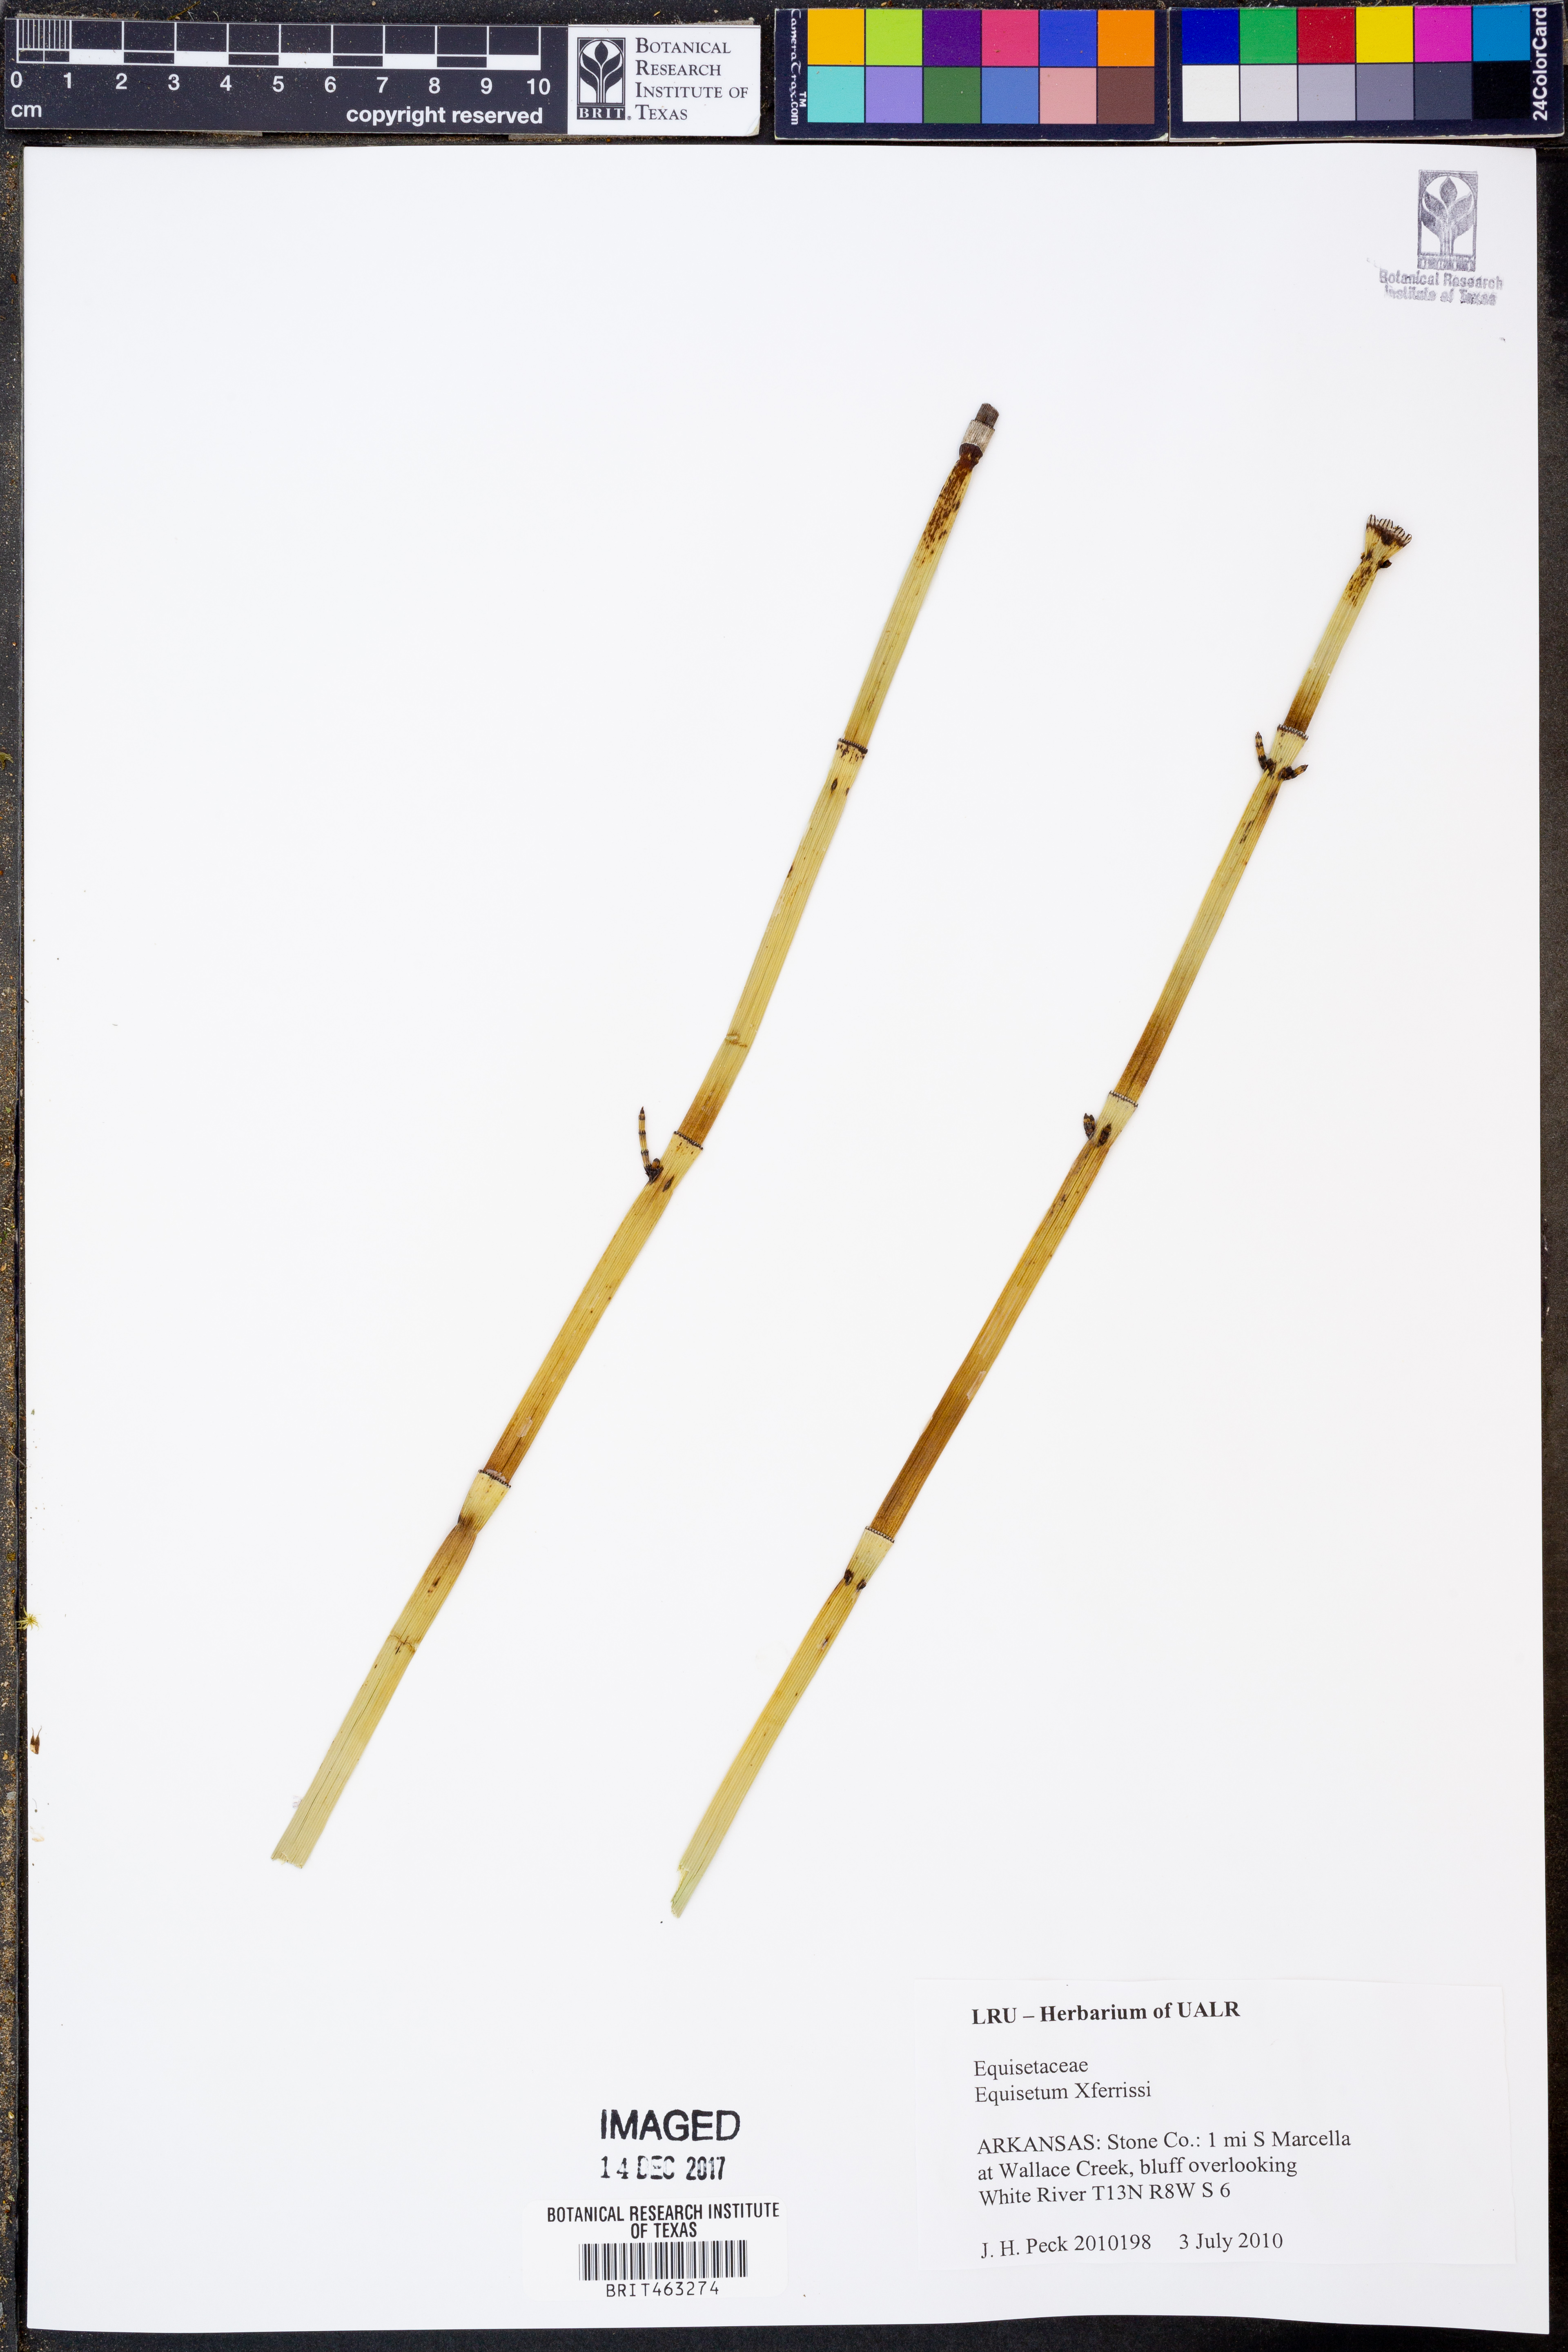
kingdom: Plantae
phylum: Tracheophyta
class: Polypodiopsida
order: Equisetales
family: Equisetaceae
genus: Equisetum
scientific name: Equisetum ferrissii
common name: Ferriss' horsetail
